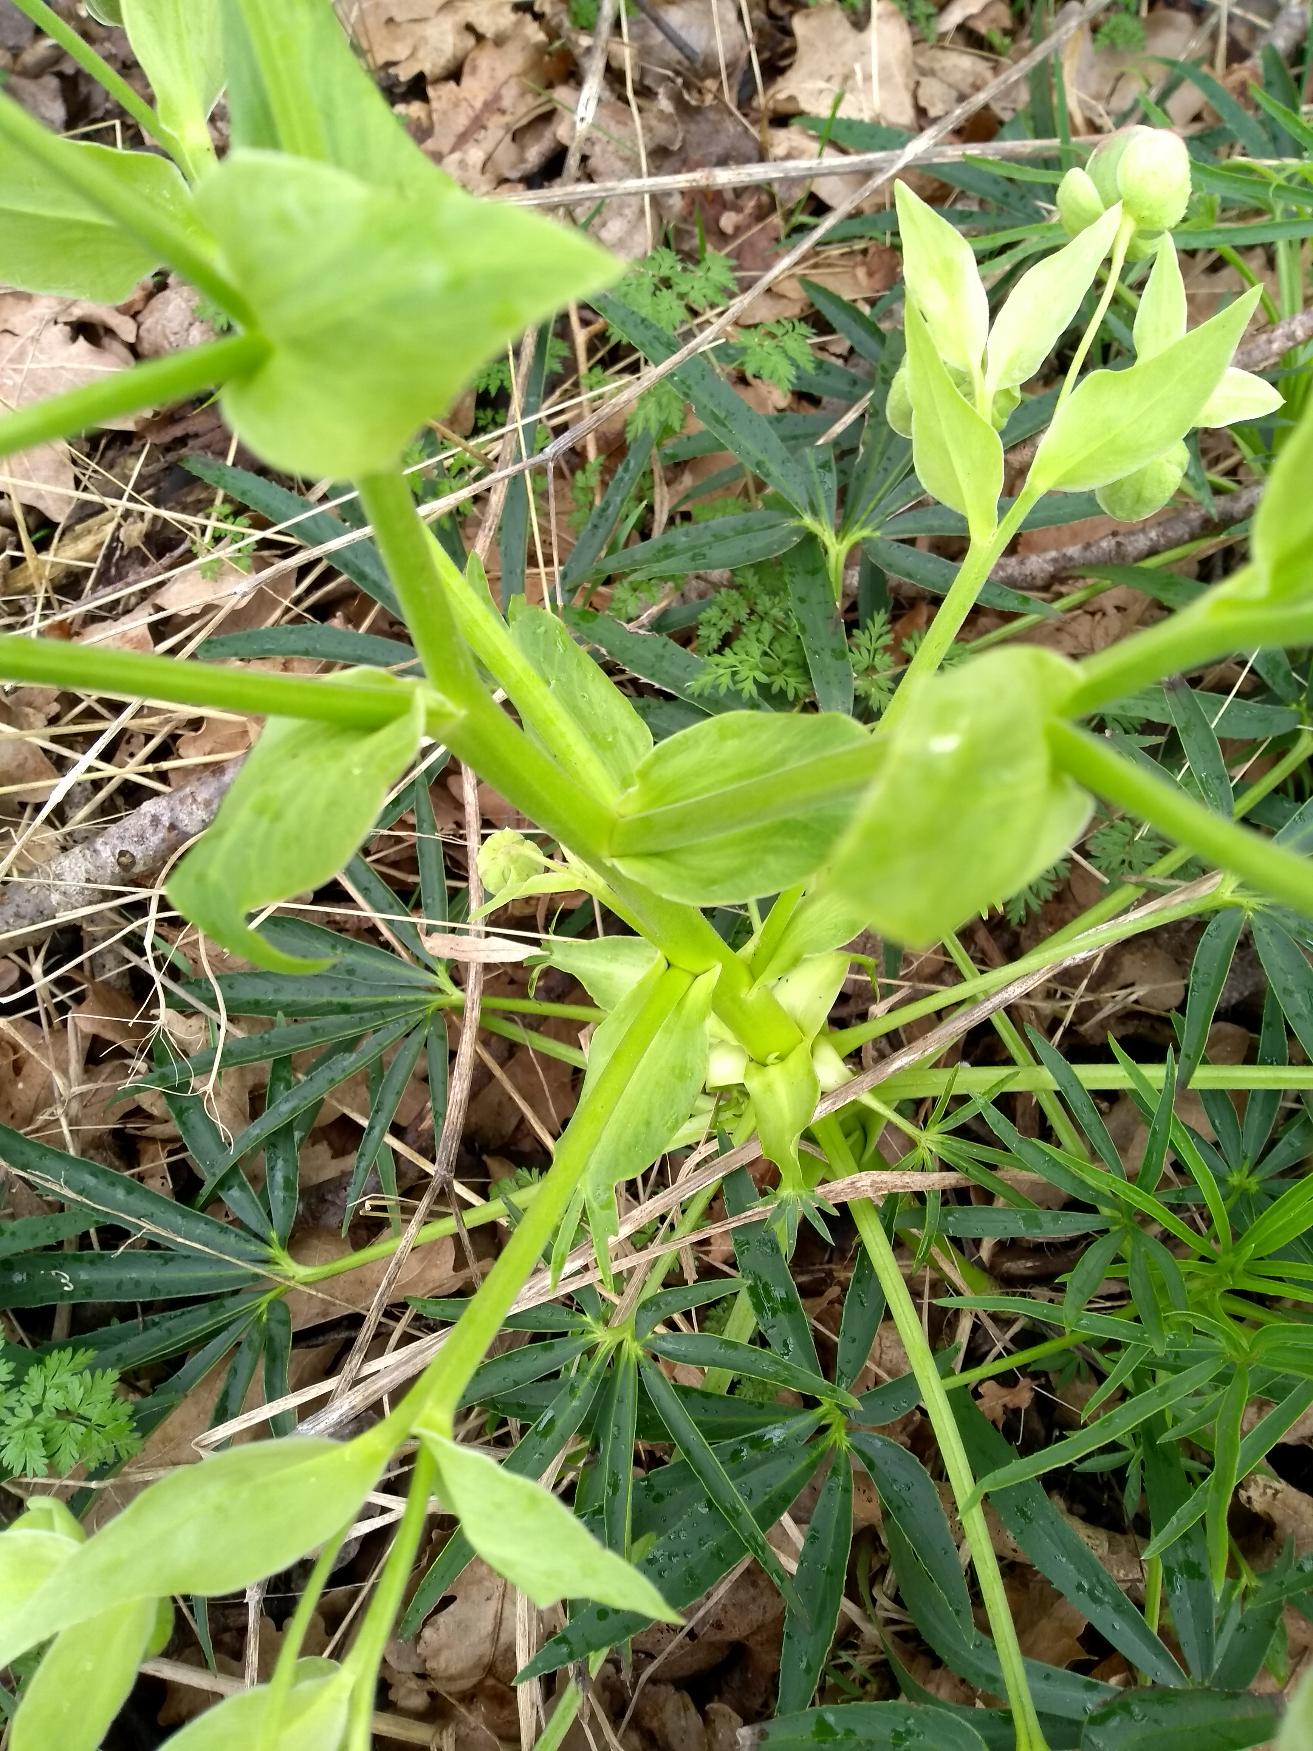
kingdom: Plantae
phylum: Tracheophyta
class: Magnoliopsida
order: Ranunculales
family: Ranunculaceae
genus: Helleborus
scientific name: Helleborus foetidus
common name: Stinkende julerose
